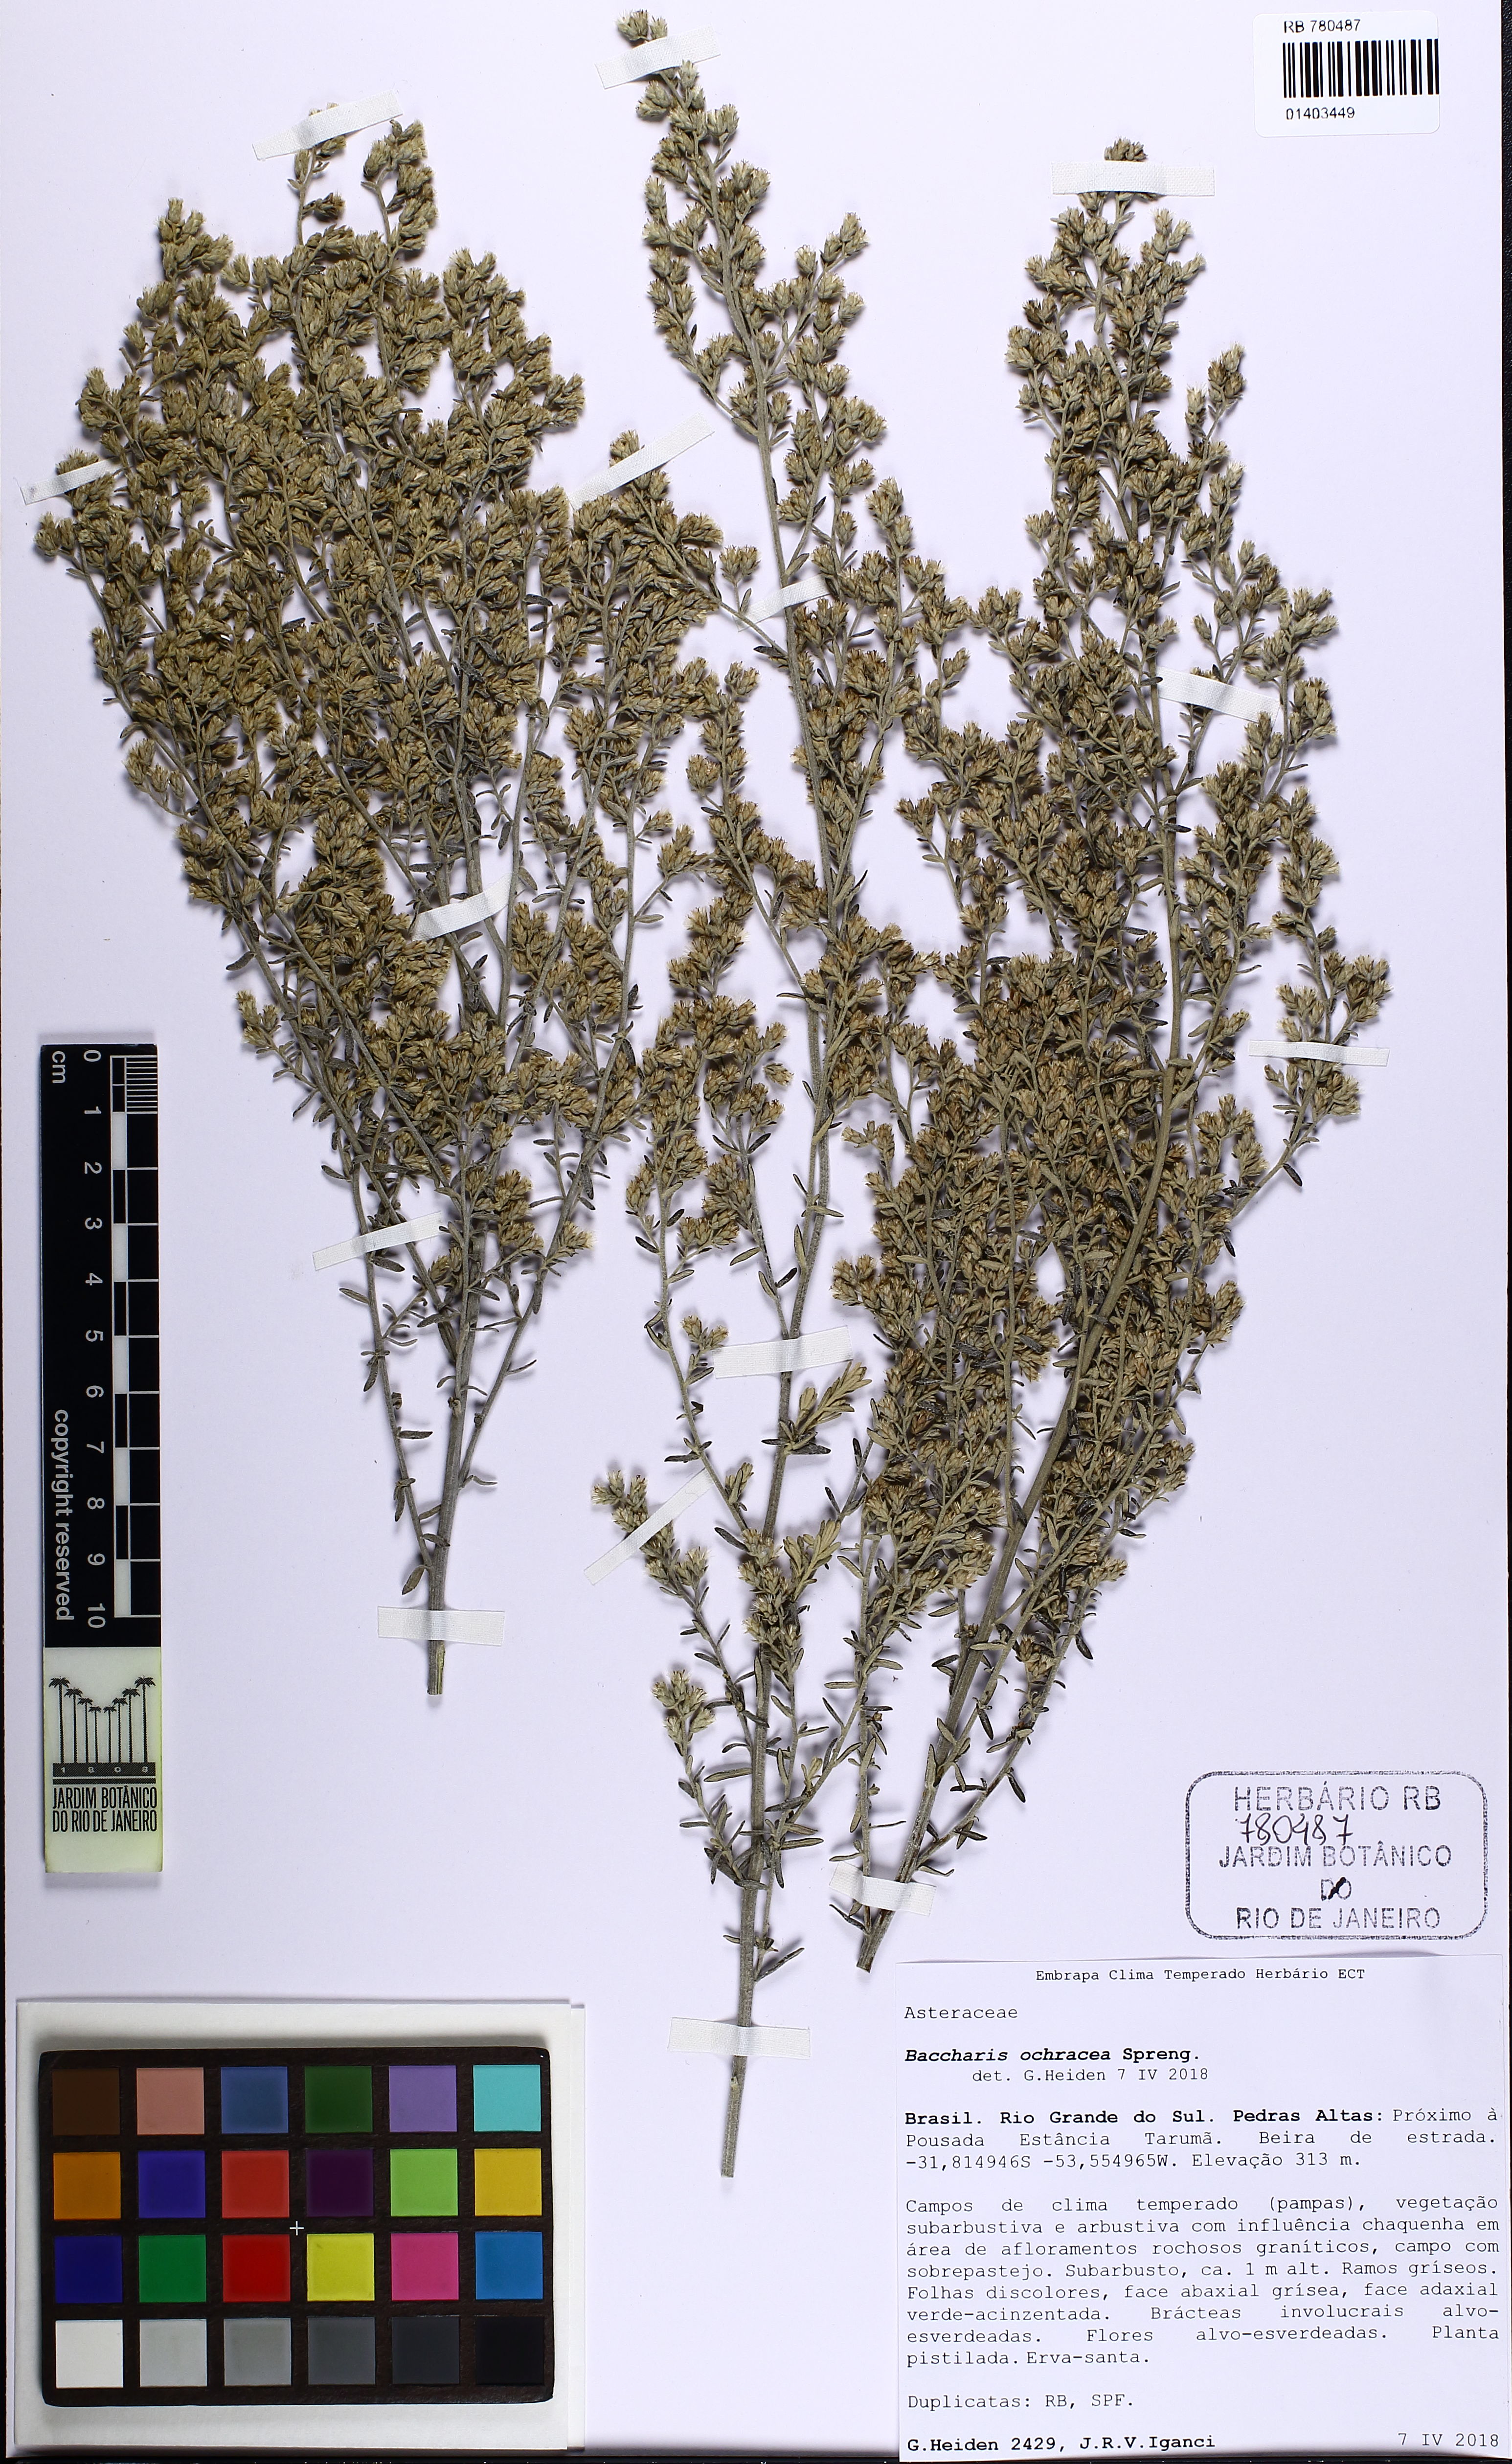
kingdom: Plantae
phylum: Tracheophyta
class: Magnoliopsida
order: Asterales
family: Asteraceae
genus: Baccharis
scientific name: Baccharis ochracea
